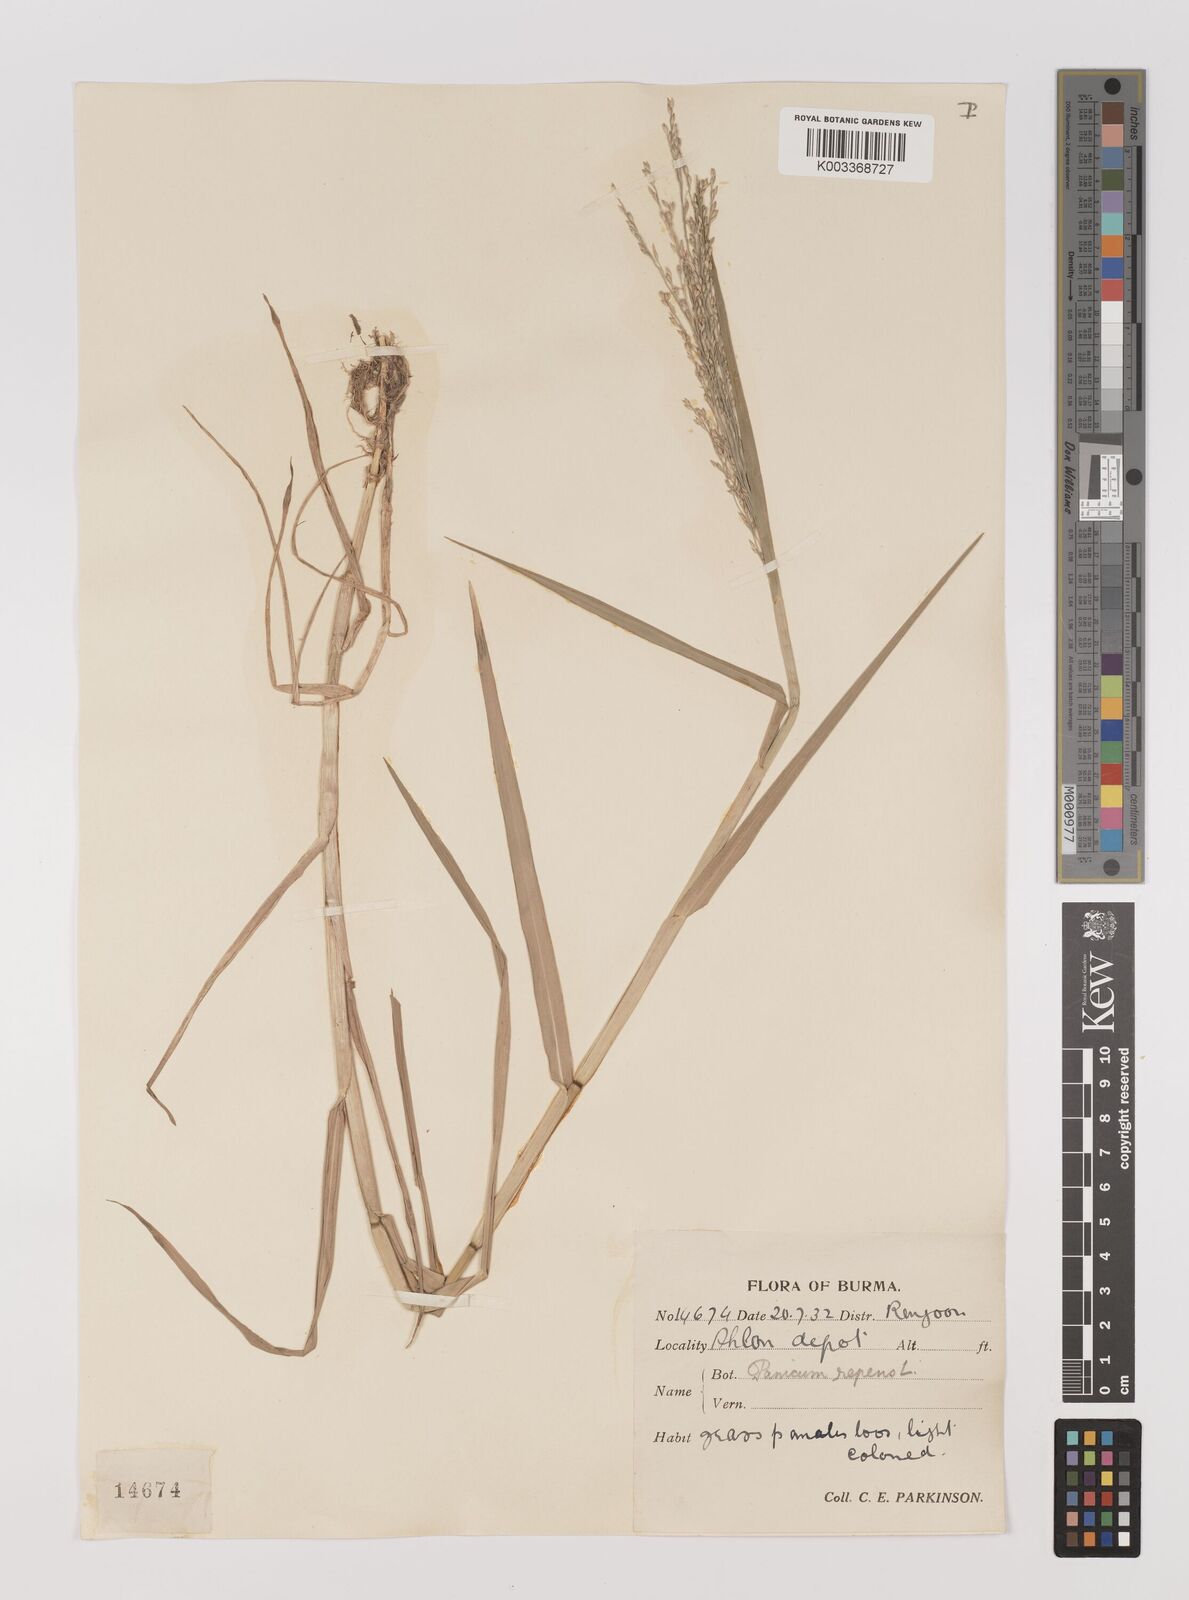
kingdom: Plantae
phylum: Tracheophyta
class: Liliopsida
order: Poales
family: Poaceae
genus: Panicum
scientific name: Panicum repens
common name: Torpedo grass
